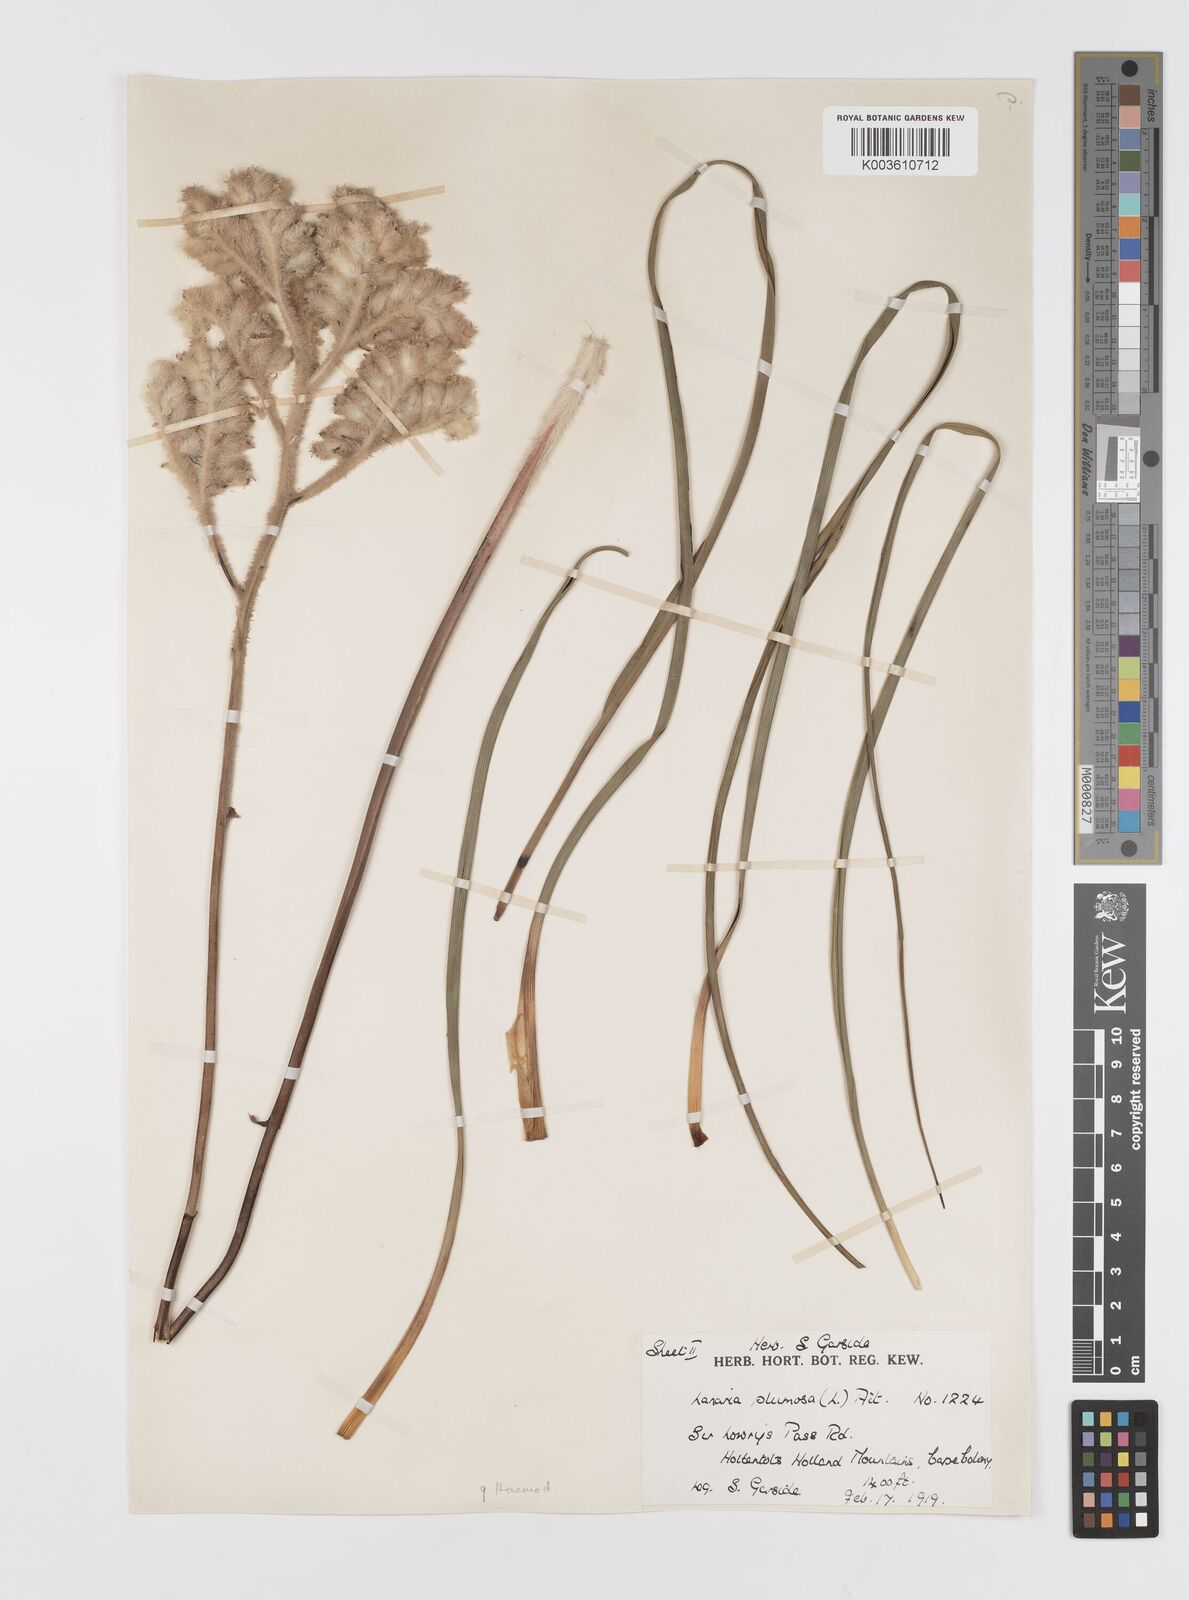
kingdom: Plantae
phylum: Tracheophyta
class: Liliopsida
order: Asparagales
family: Lanariaceae
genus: Lanaria
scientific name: Lanaria lanata
